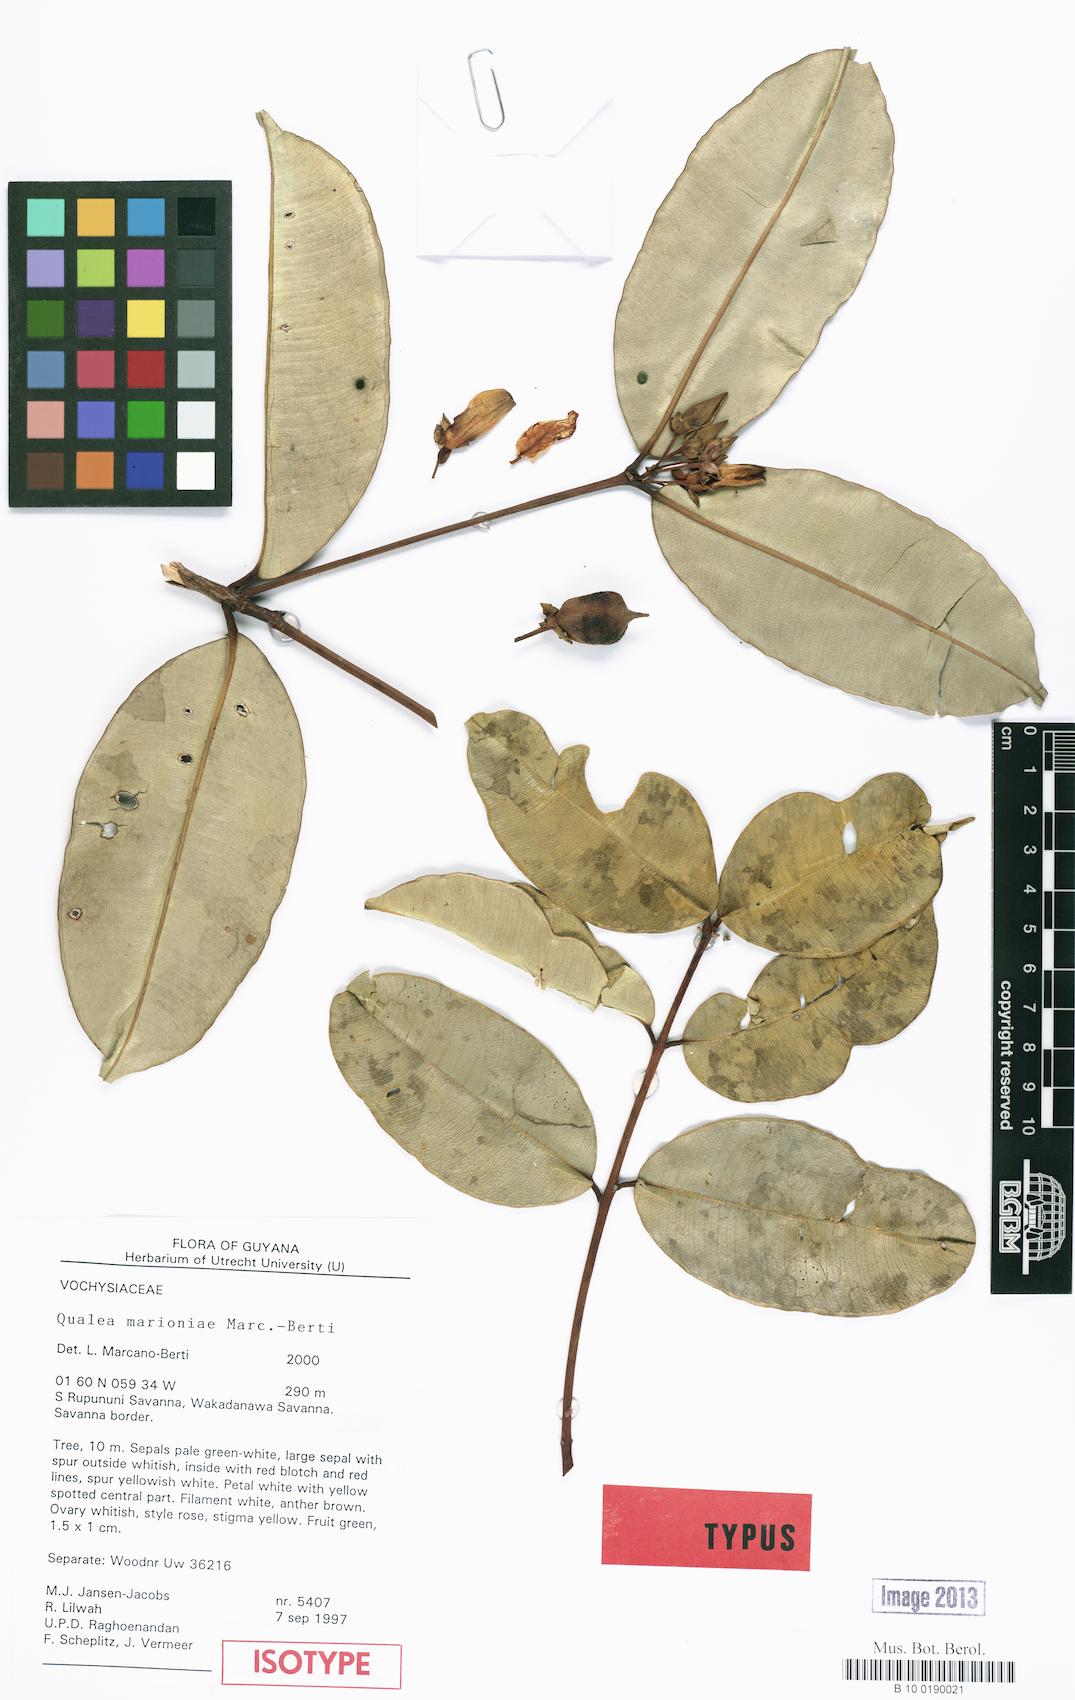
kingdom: Plantae
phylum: Tracheophyta
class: Magnoliopsida
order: Myrtales
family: Vochysiaceae
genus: Qualea
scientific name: Qualea marioniae
